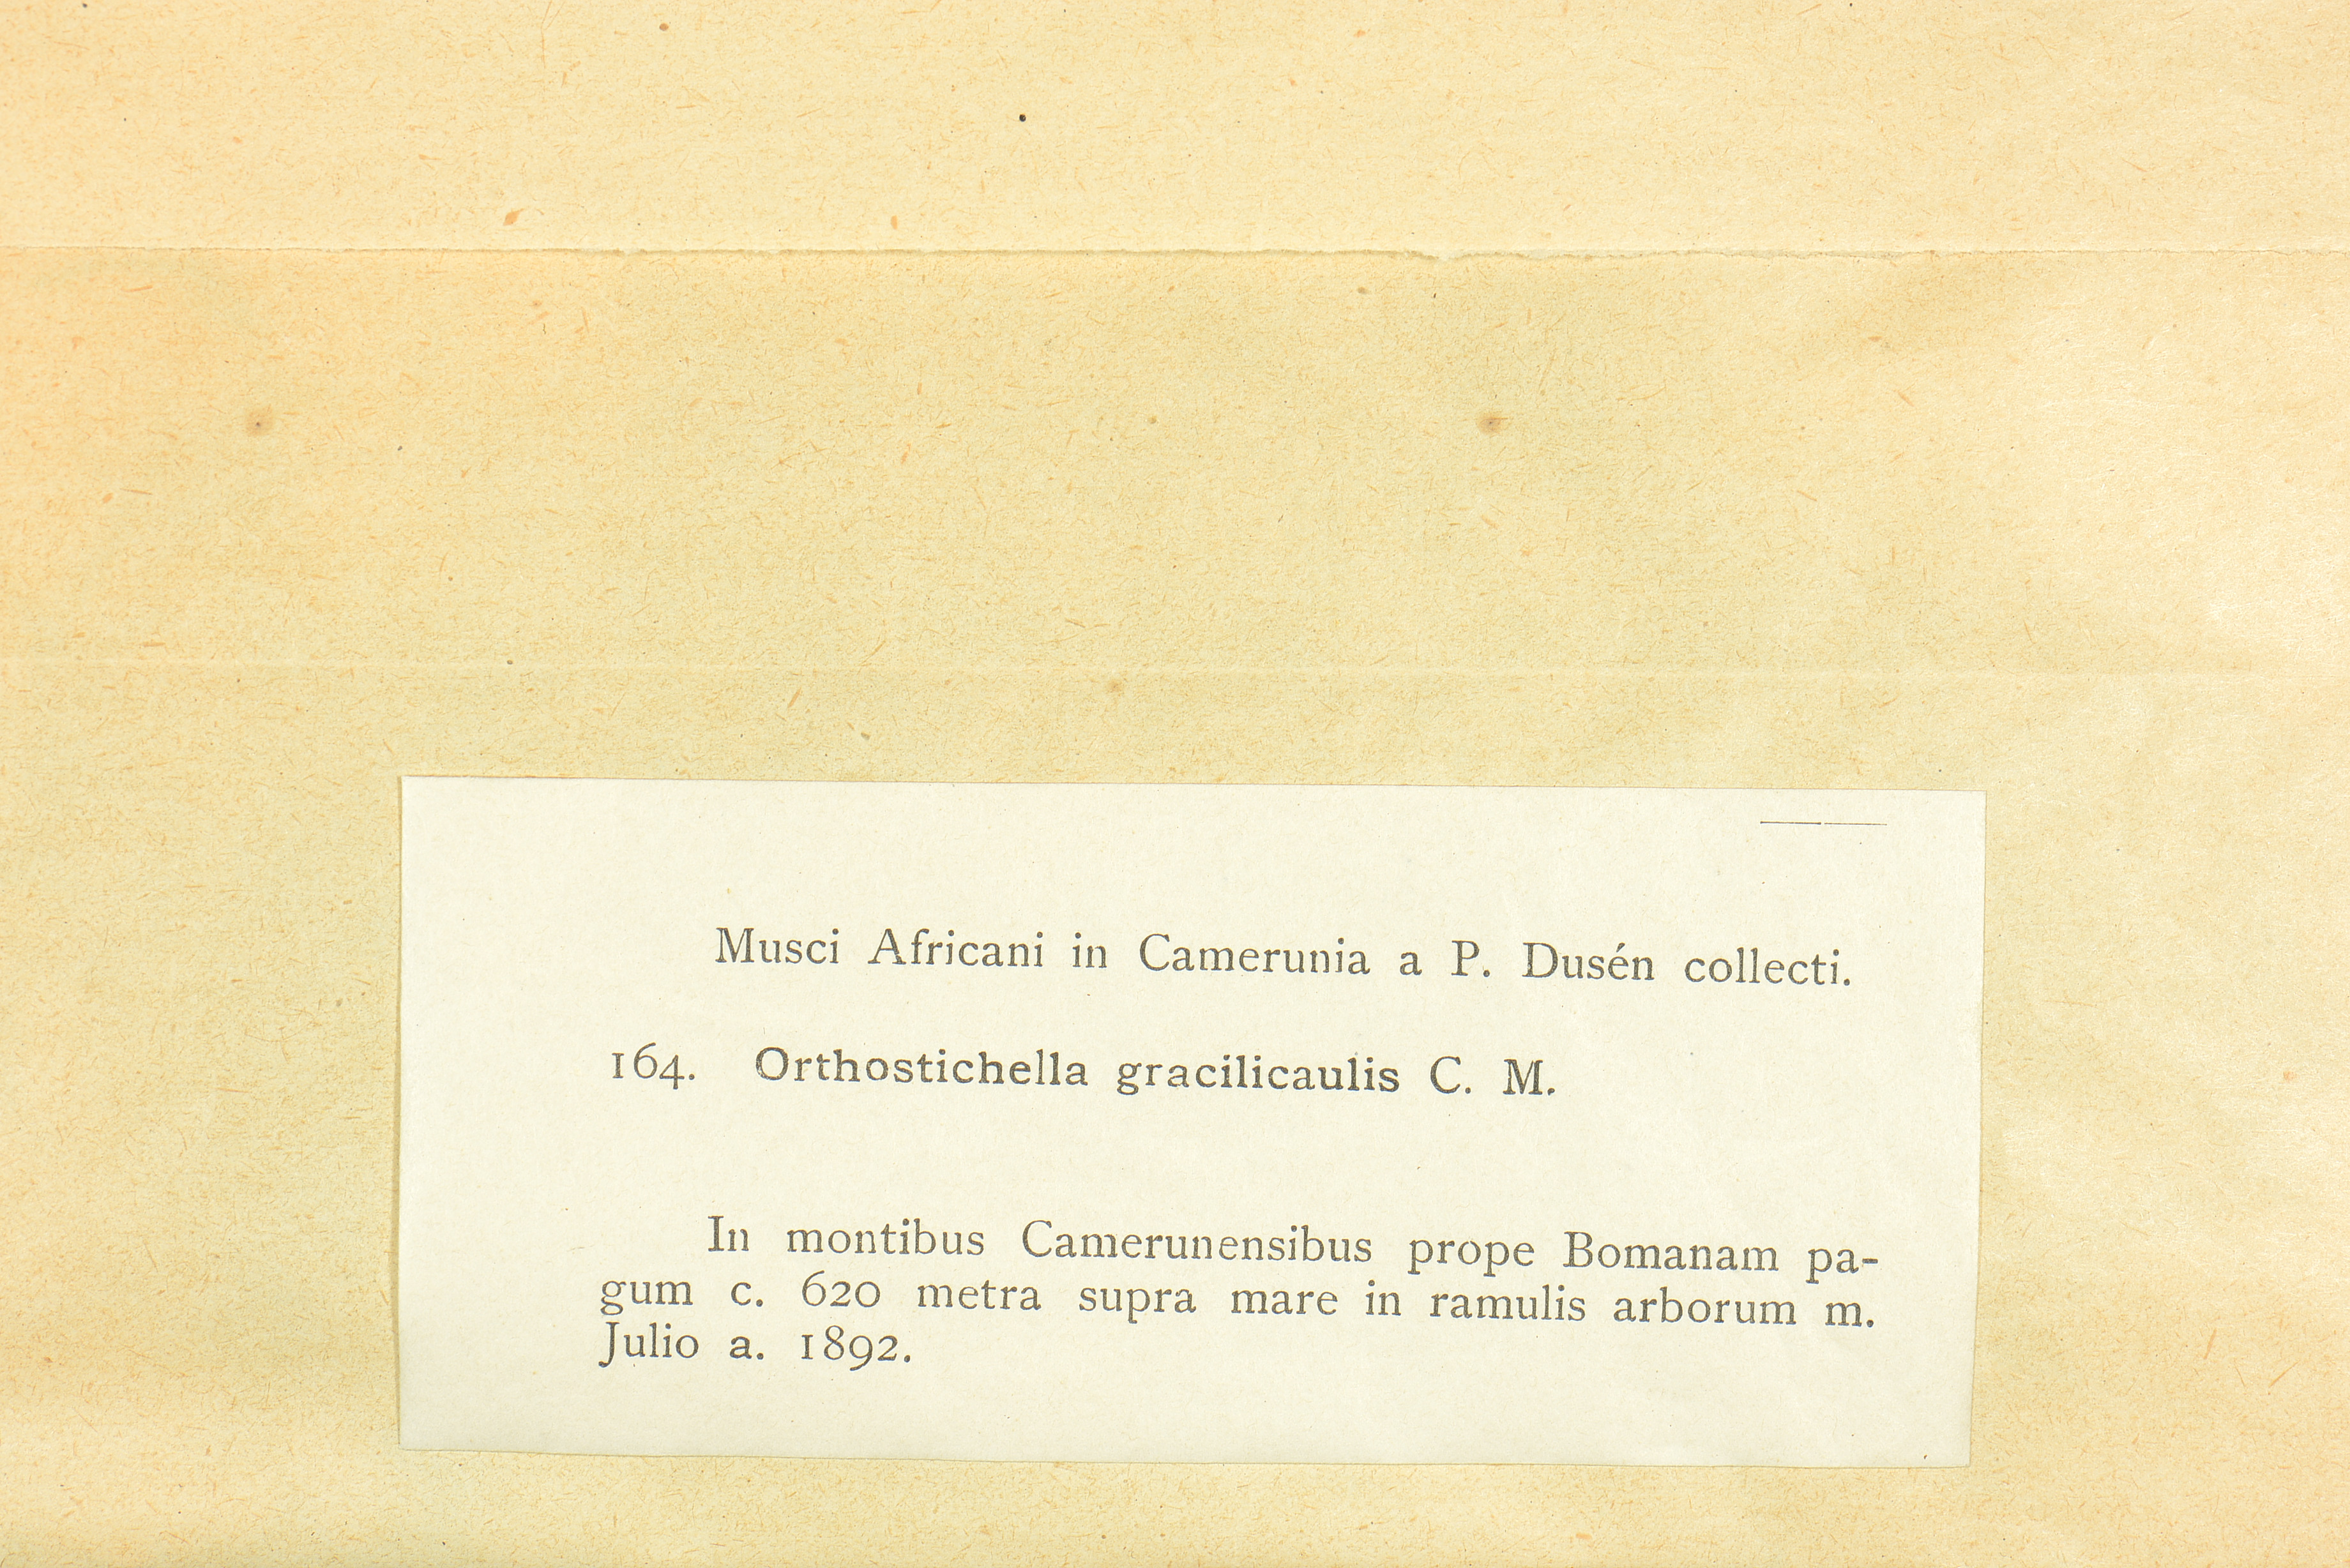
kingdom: Plantae
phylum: Bryophyta
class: Bryopsida
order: Hypnales
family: Orthostichellaceae
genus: Orthostichella
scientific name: Orthostichella
